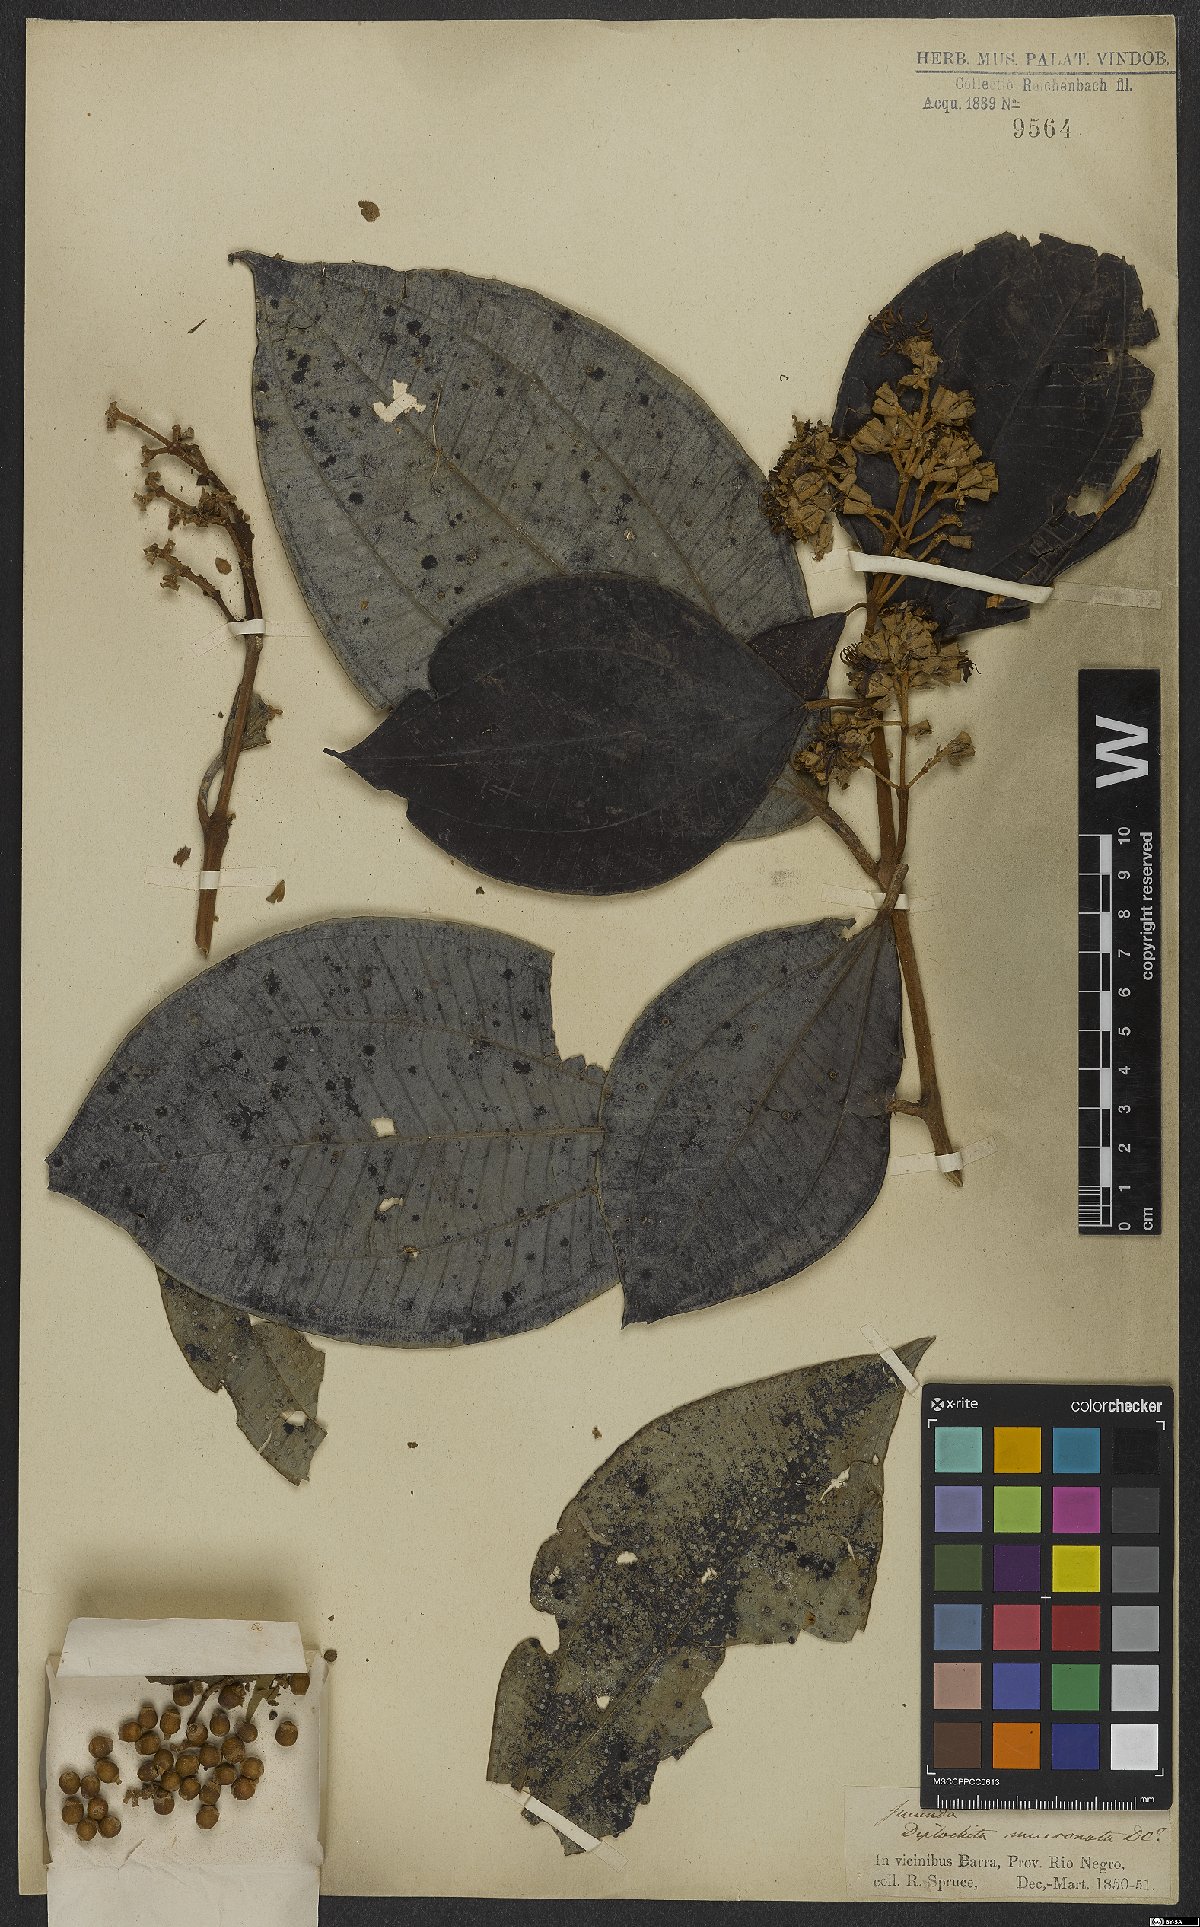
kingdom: Plantae
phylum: Tracheophyta
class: Magnoliopsida
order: Myrtales
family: Melastomataceae
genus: Miconia
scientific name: Miconia holosericea
